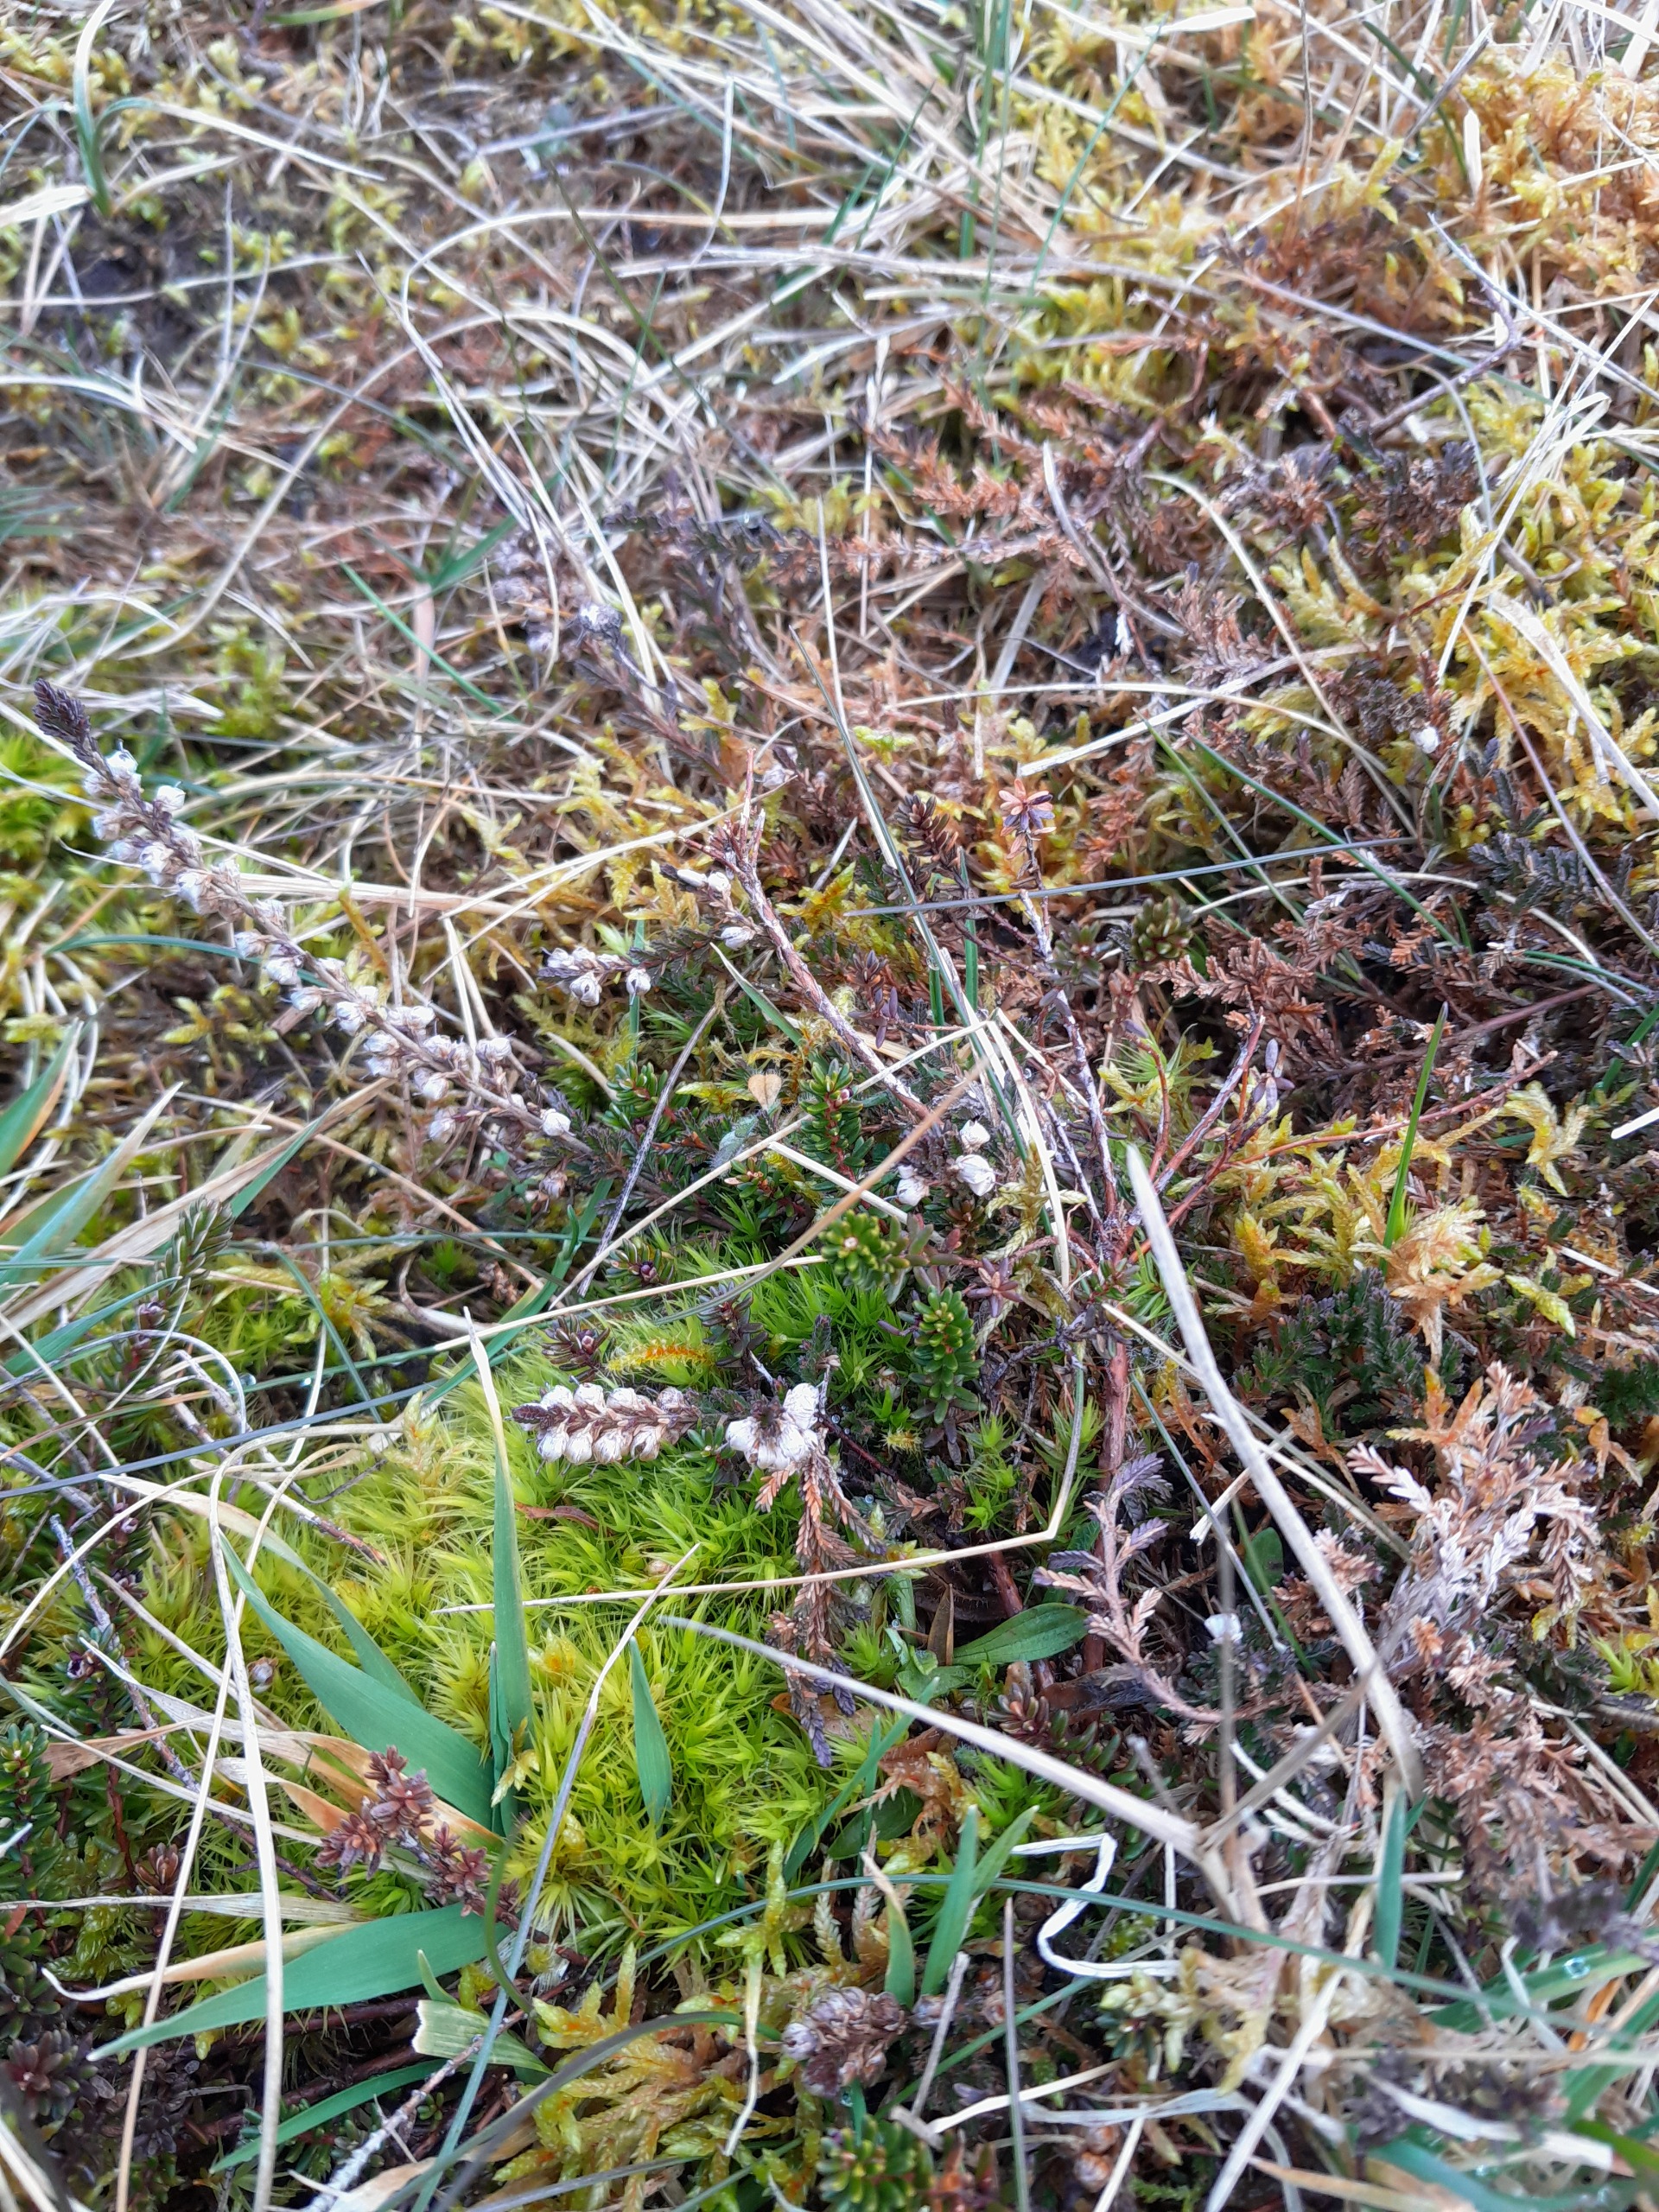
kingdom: Plantae
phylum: Tracheophyta
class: Magnoliopsida
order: Ericales
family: Ericaceae
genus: Calluna
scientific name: Calluna vulgaris
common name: Hedelyng
